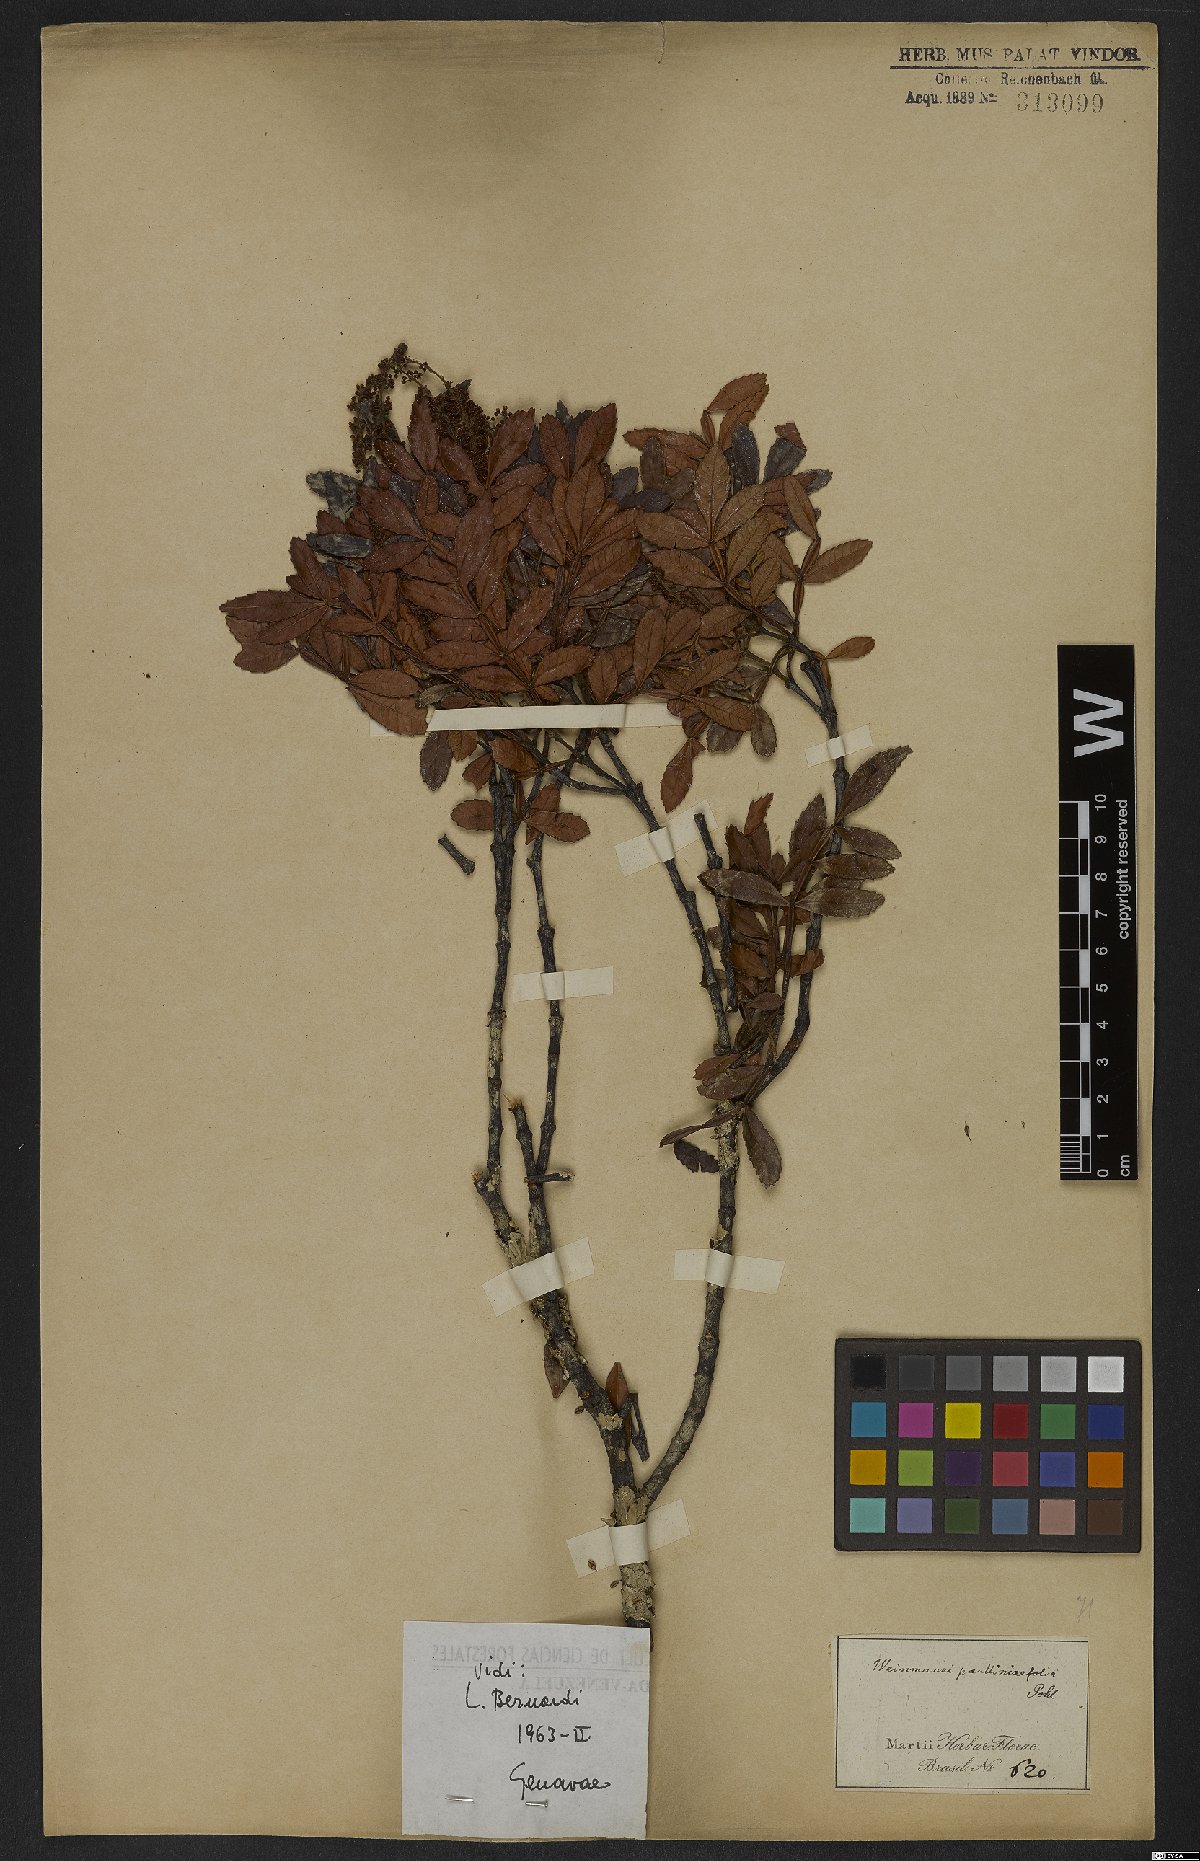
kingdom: Plantae
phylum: Tracheophyta
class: Magnoliopsida
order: Oxalidales
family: Cunoniaceae
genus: Weinmannia
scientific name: Weinmannia paullinifolia
